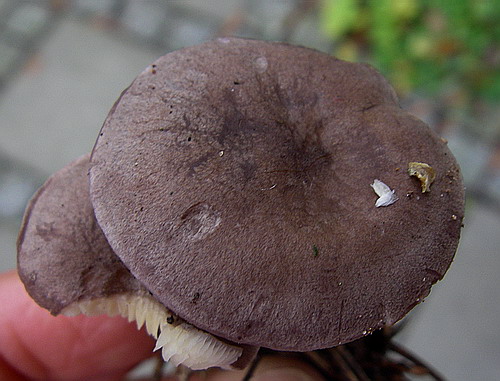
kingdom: Fungi
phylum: Basidiomycota
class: Agaricomycetes
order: Agaricales
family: Lyophyllaceae
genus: Calocybe
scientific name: Calocybe obscurissima
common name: mørk fagerhat
